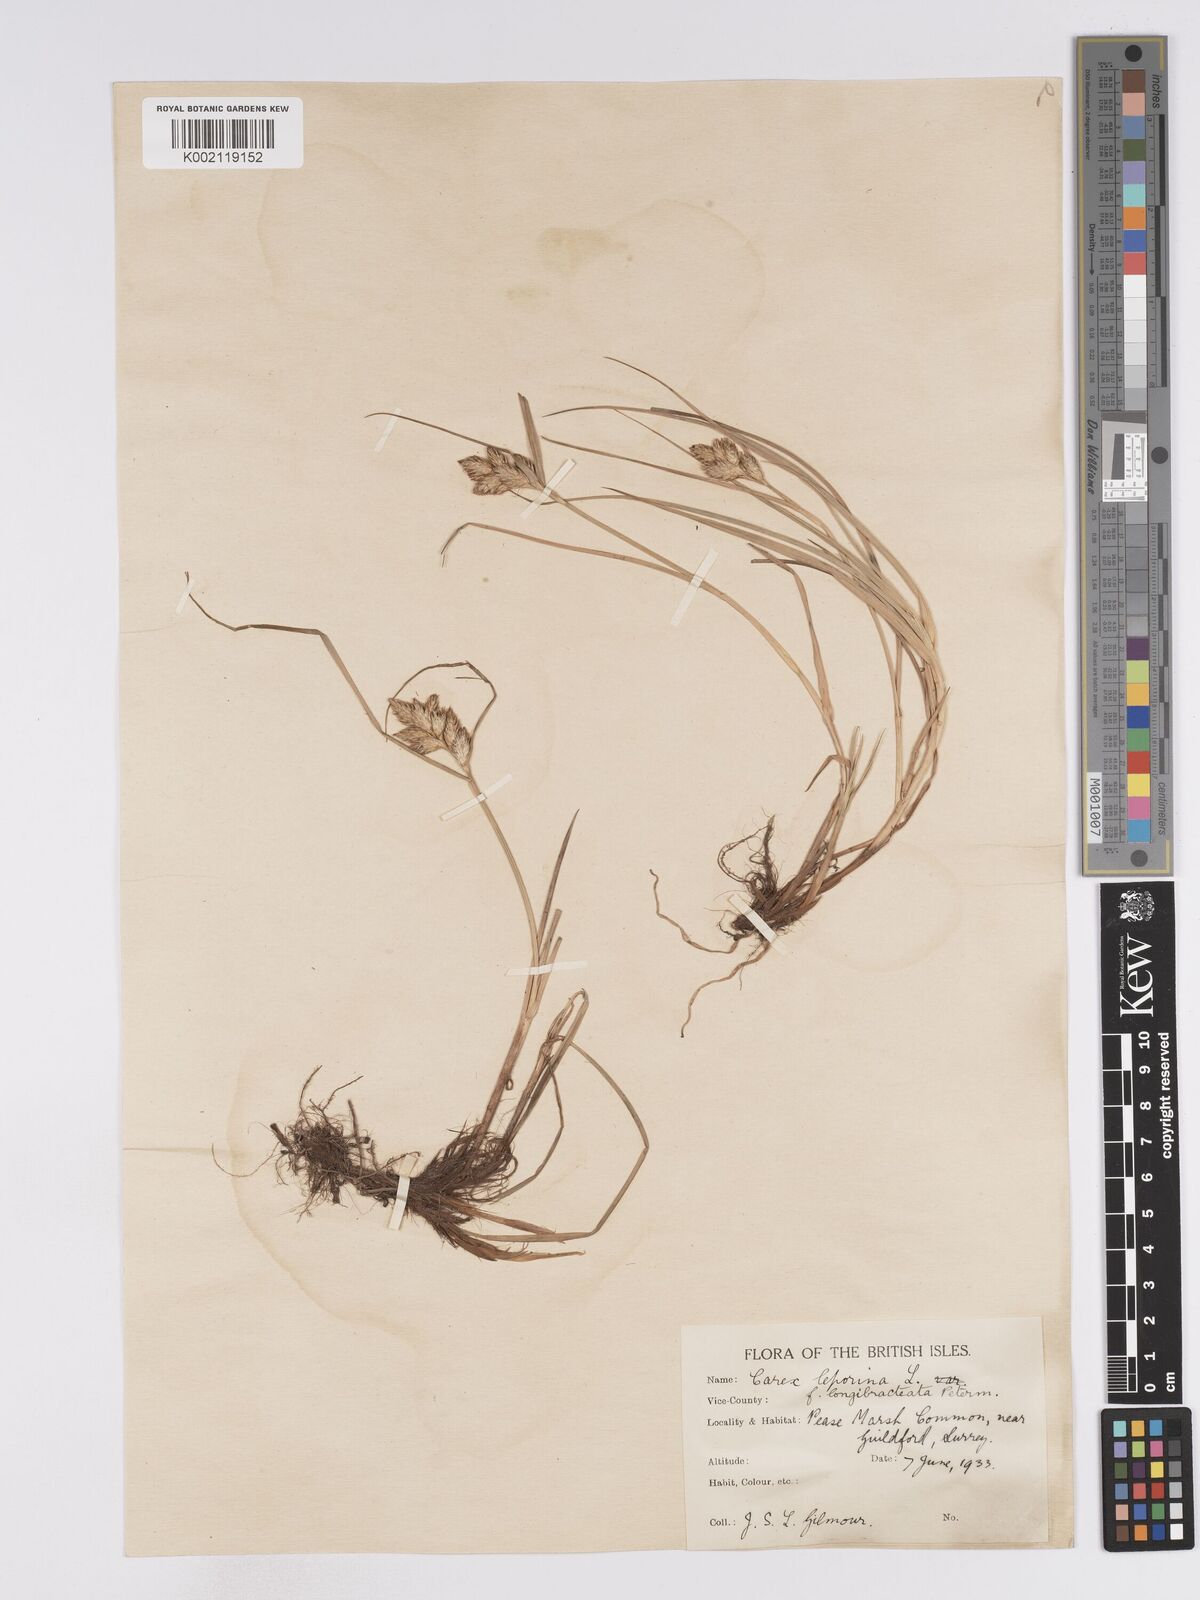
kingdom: Plantae
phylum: Tracheophyta
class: Liliopsida
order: Poales
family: Cyperaceae
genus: Carex
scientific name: Carex leporina
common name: Oval sedge
